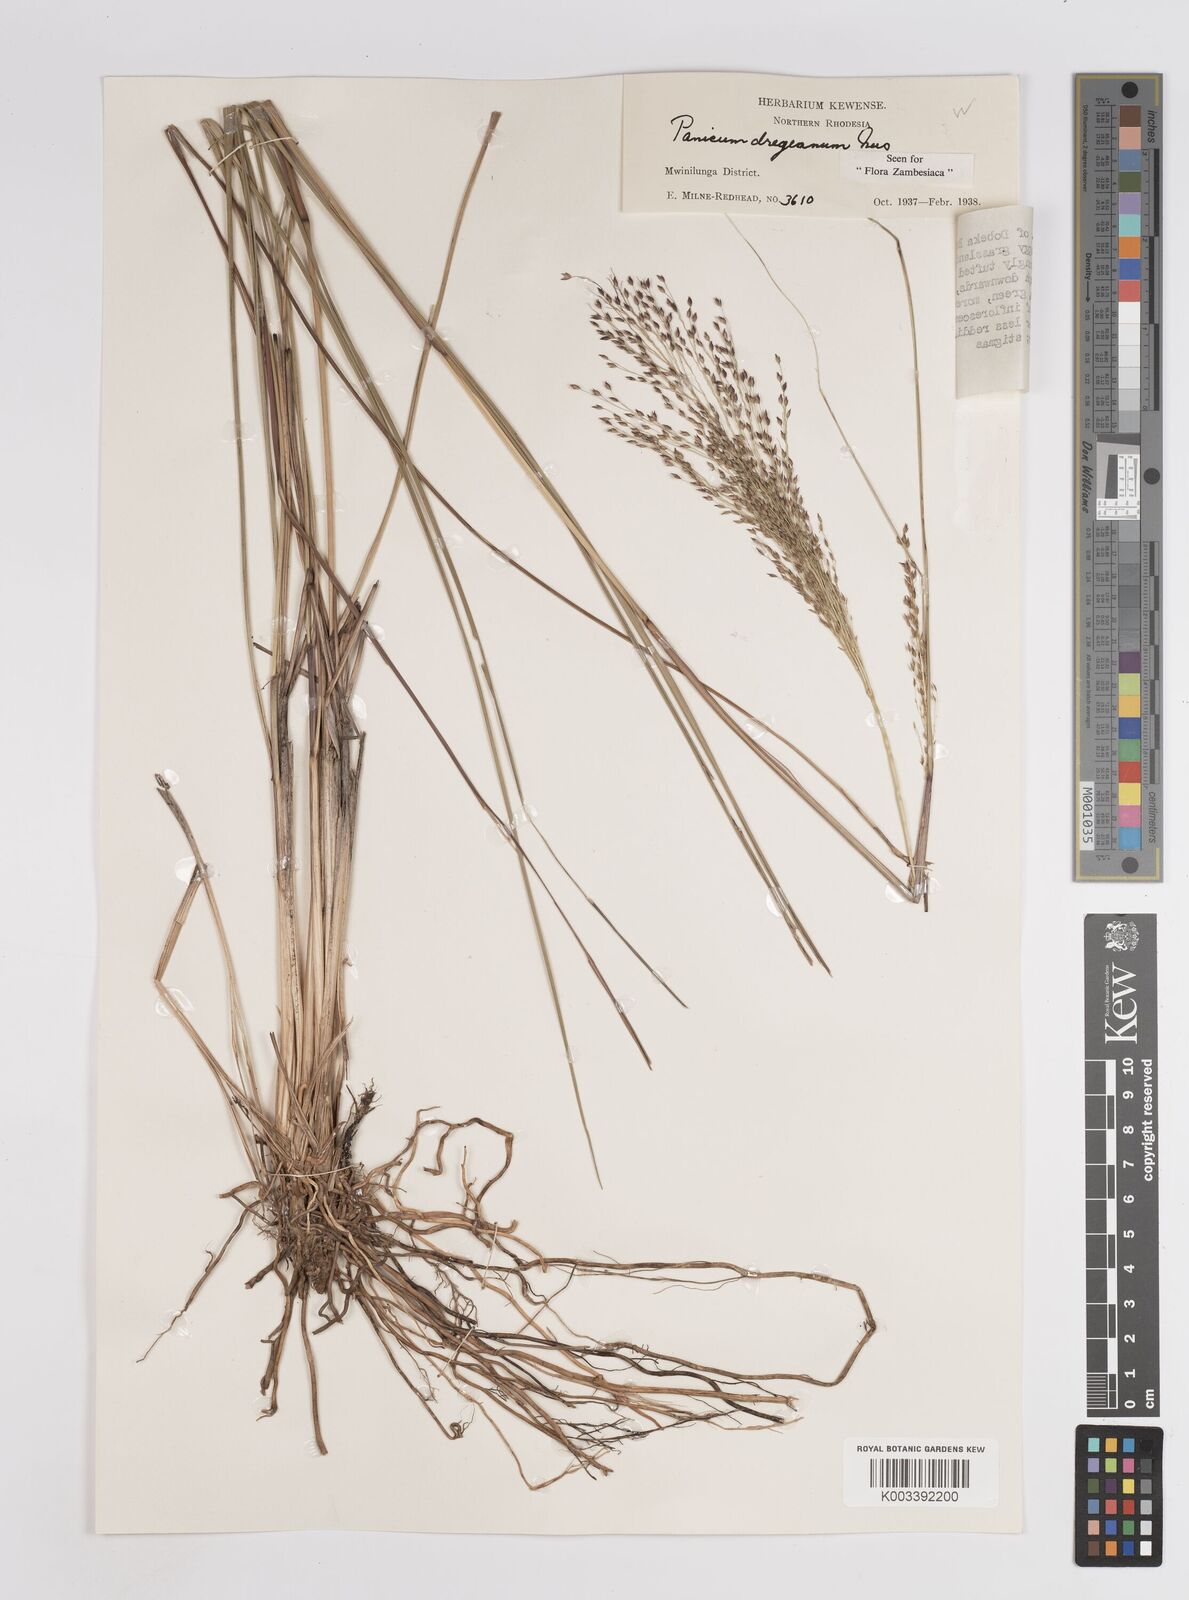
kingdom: Plantae
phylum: Tracheophyta
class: Liliopsida
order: Poales
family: Poaceae
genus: Panicum
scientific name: Panicum dregeanum
